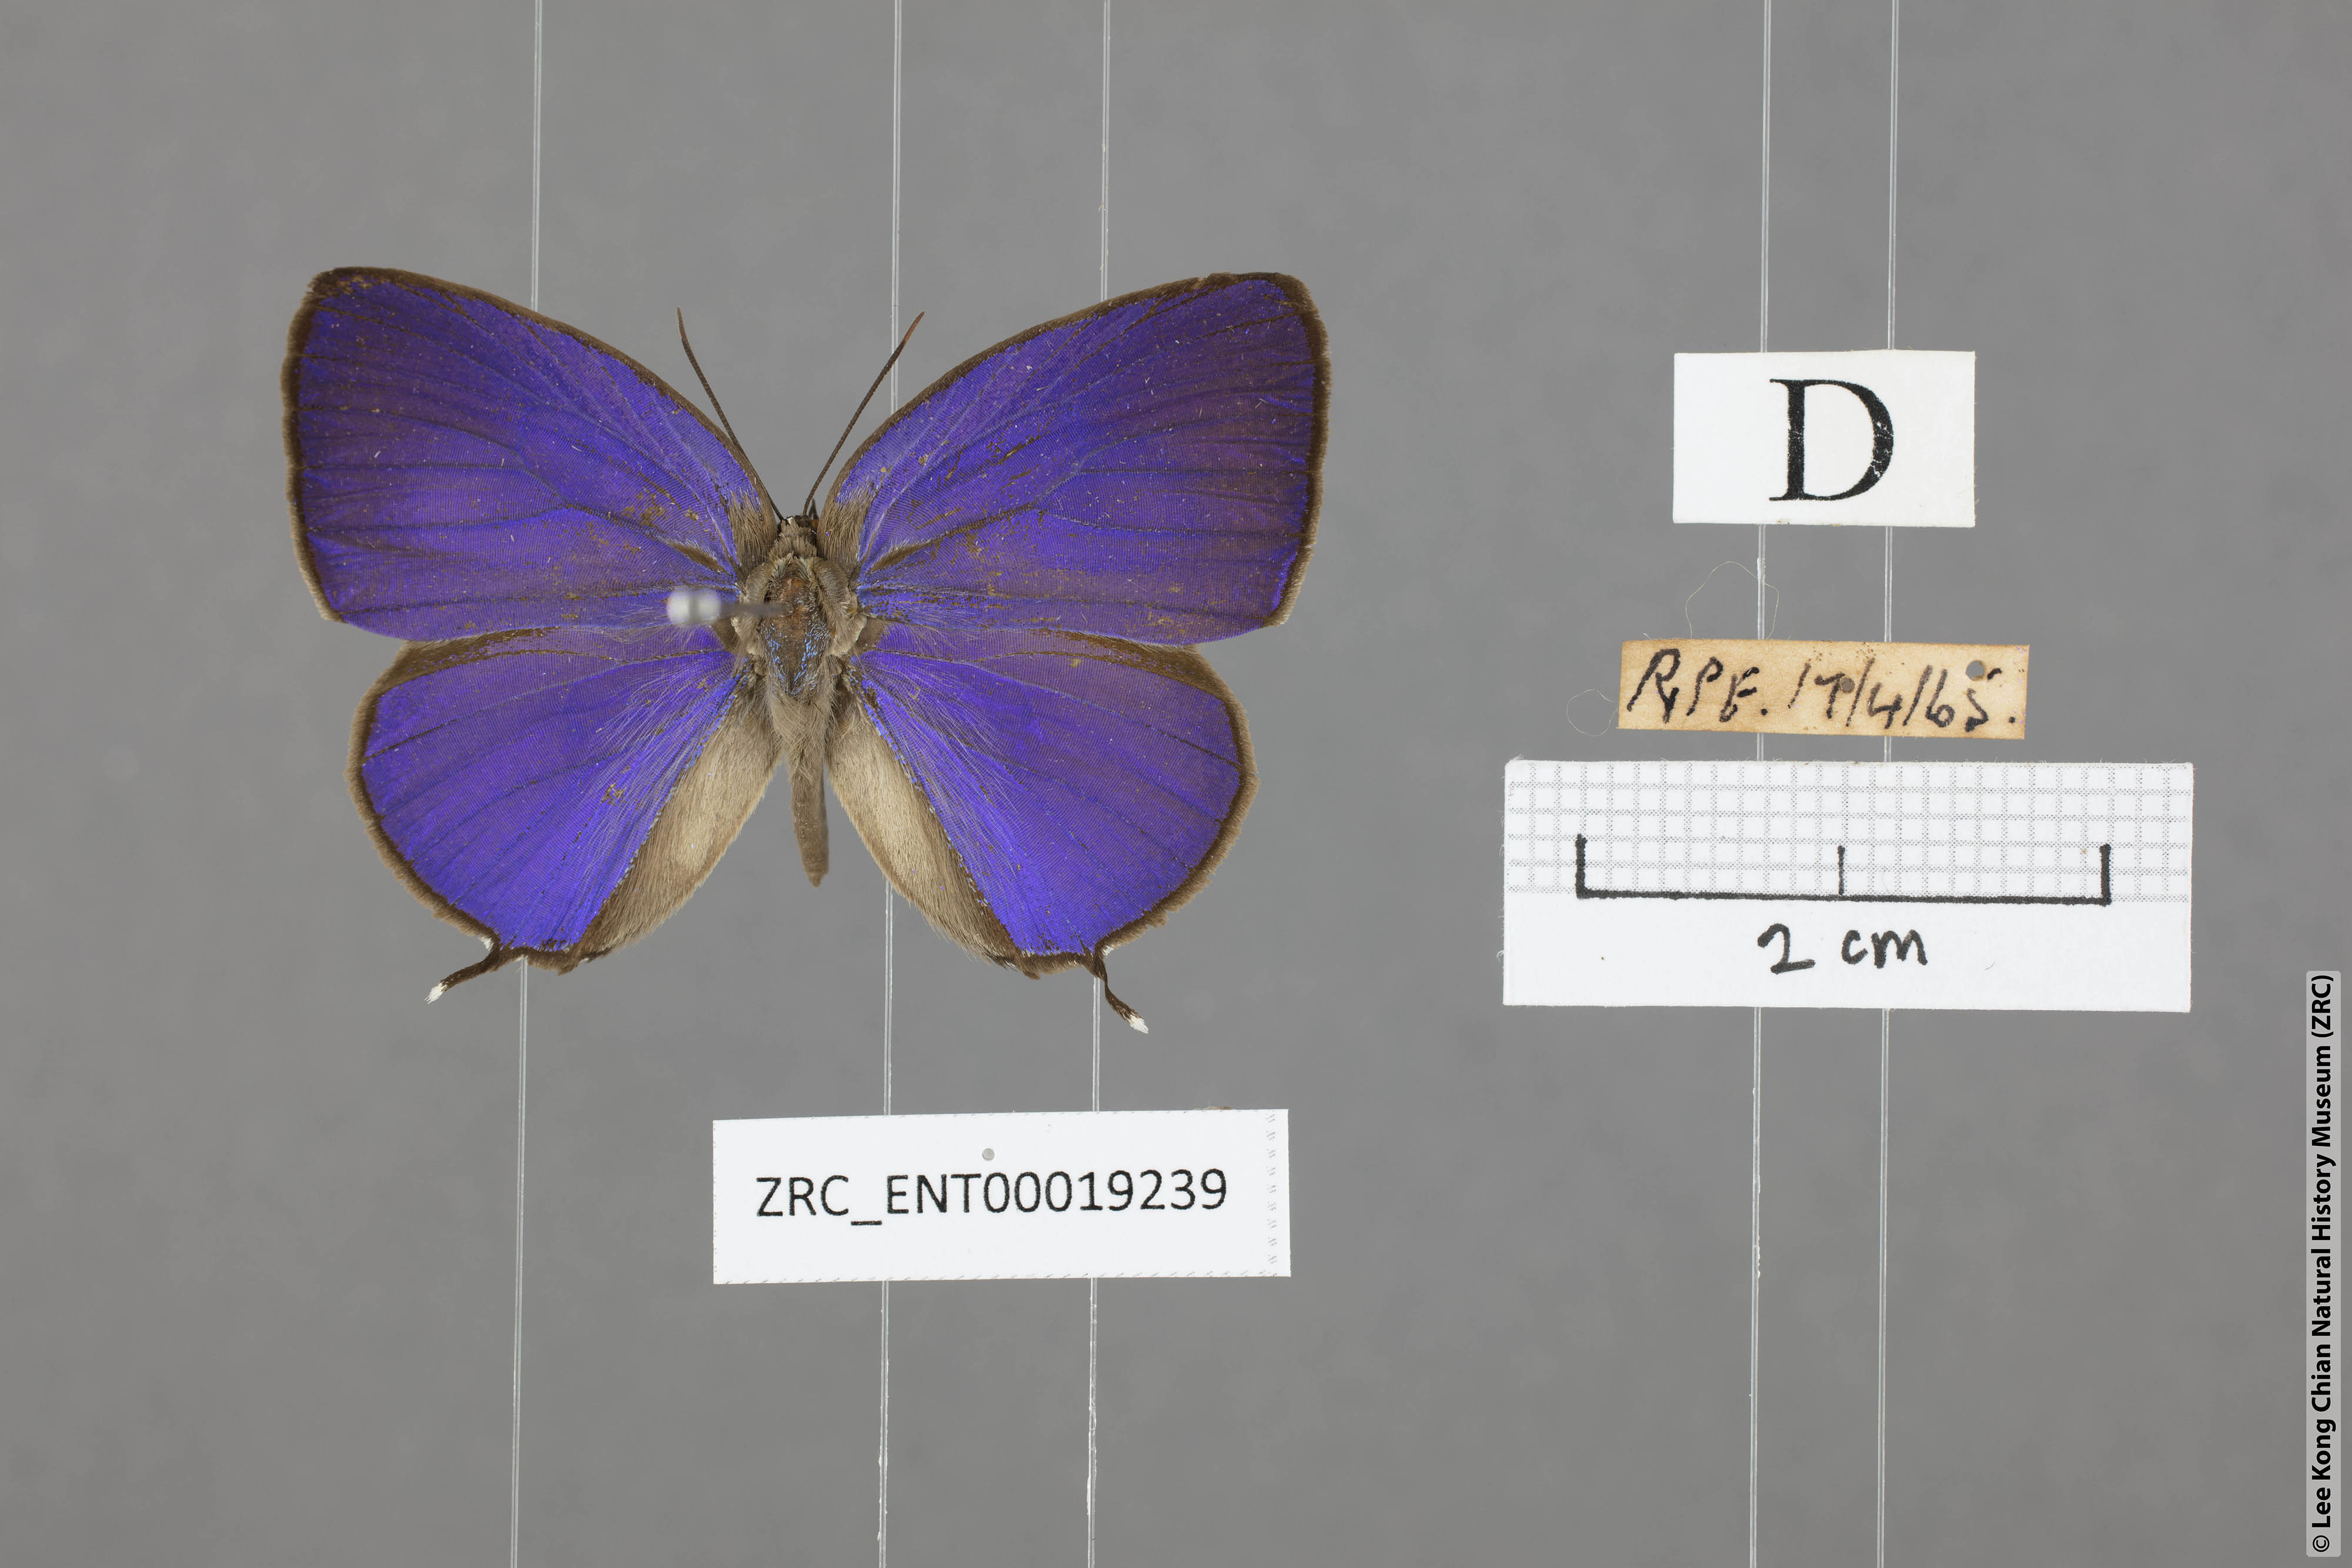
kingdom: Animalia
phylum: Arthropoda
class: Insecta
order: Lepidoptera
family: Lycaenidae
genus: Arhopala
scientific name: Arhopala atosia
